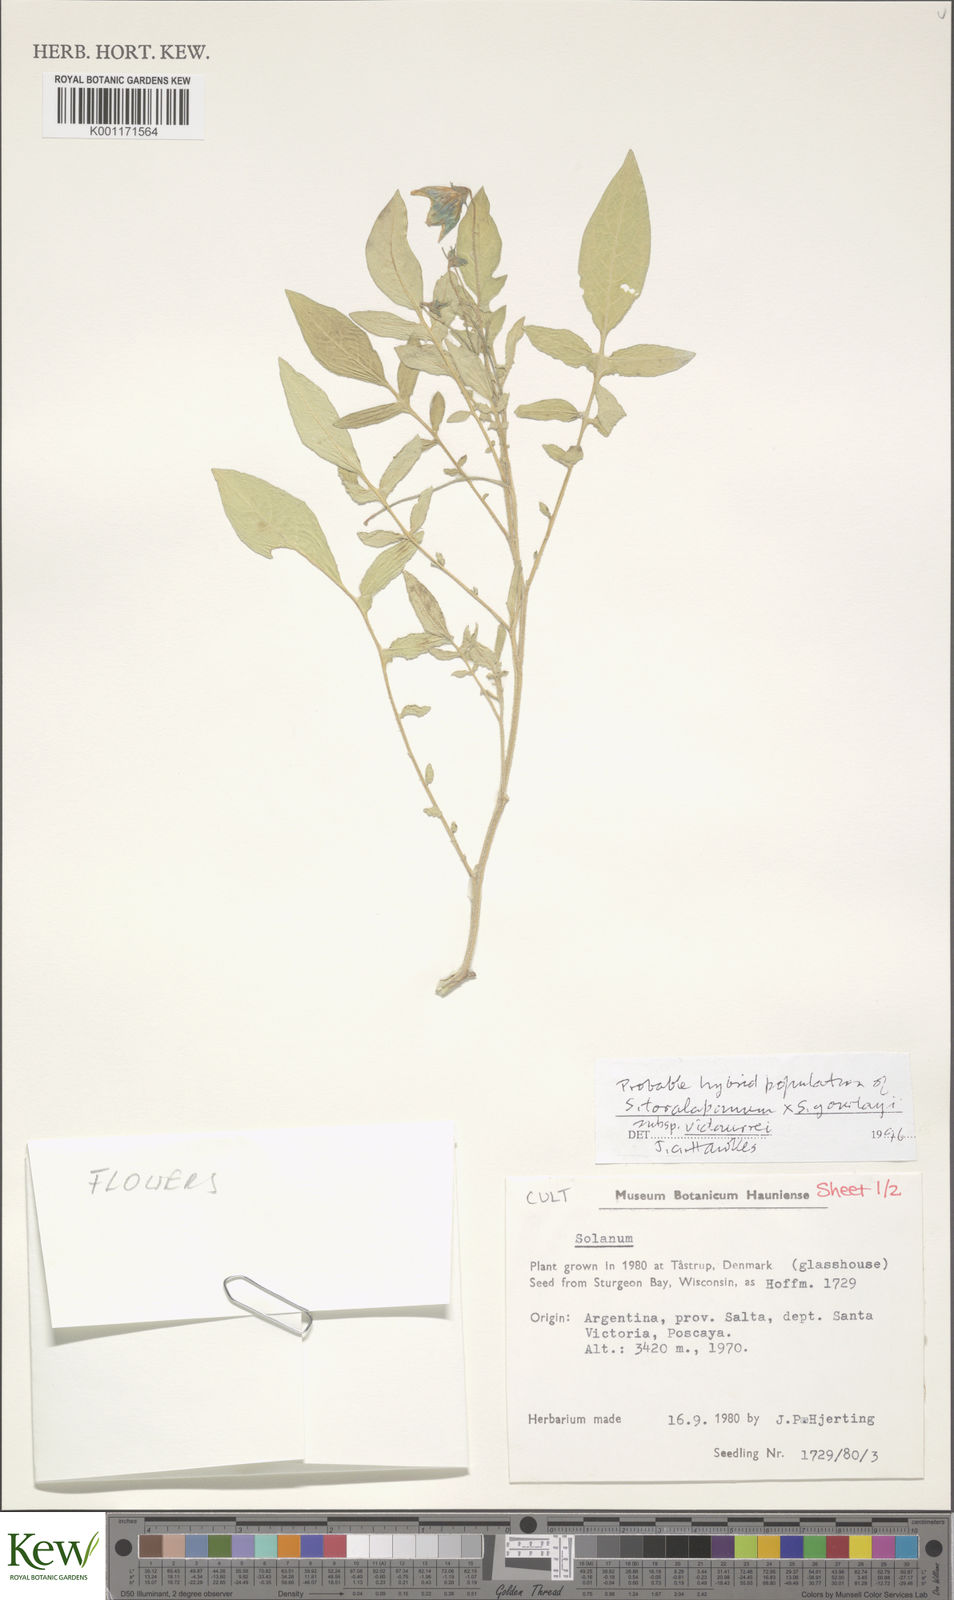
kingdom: Plantae
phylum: Tracheophyta
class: Magnoliopsida
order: Solanales
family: Solanaceae
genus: Solanum
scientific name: Solanum brevicaule
